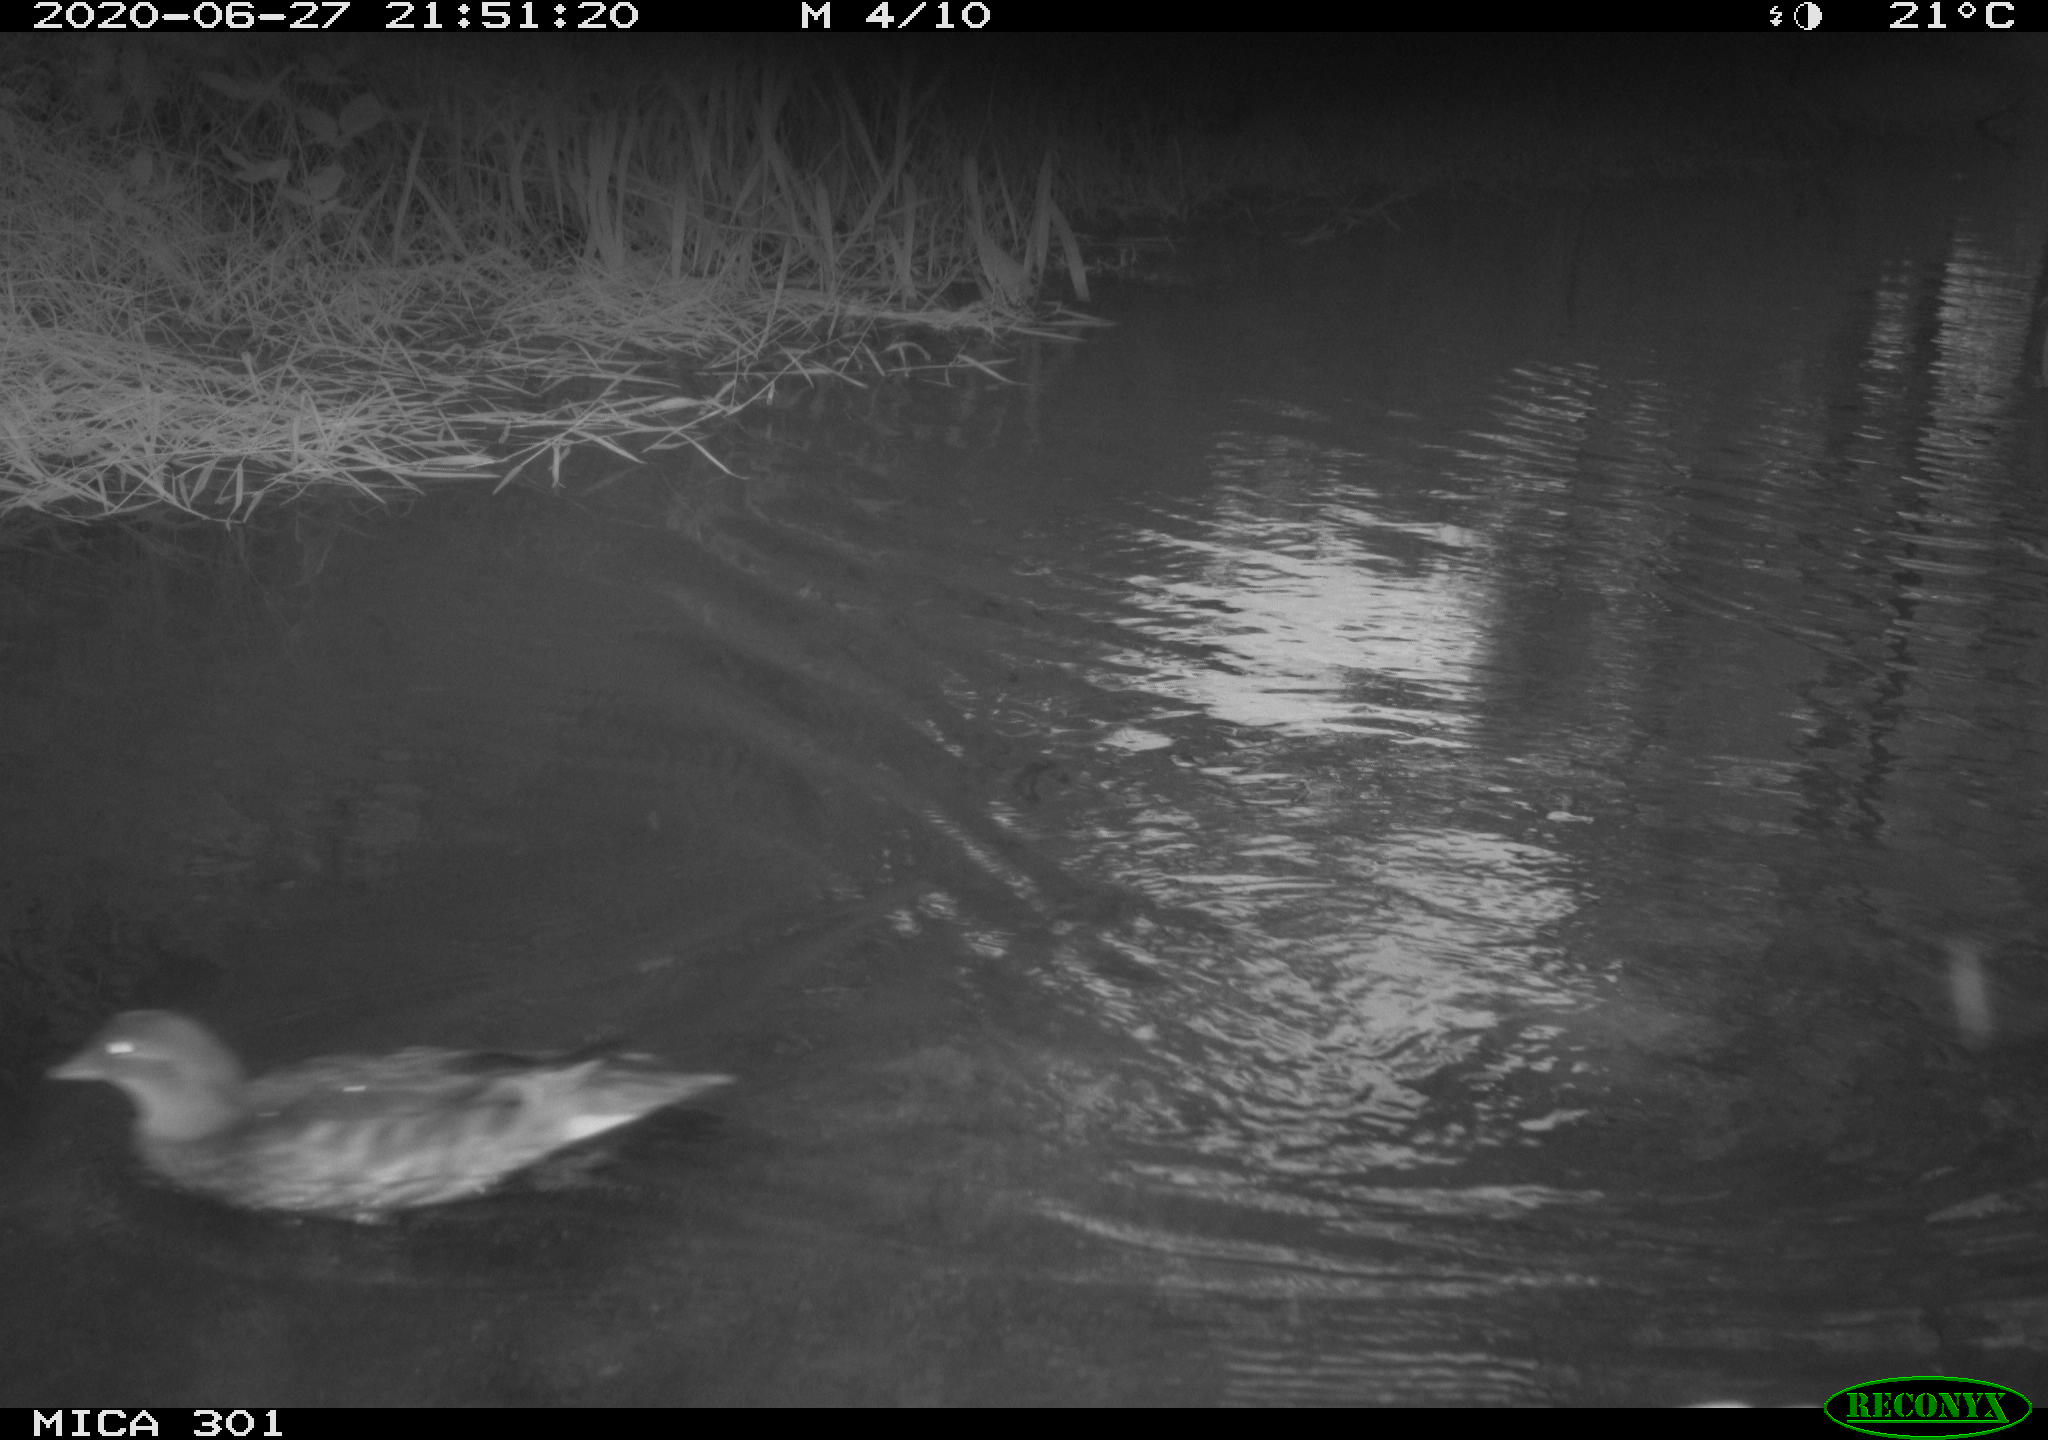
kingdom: Animalia
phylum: Chordata
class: Aves
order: Anseriformes
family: Anatidae
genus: Aix
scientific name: Aix galericulata
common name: Mandarin duck
